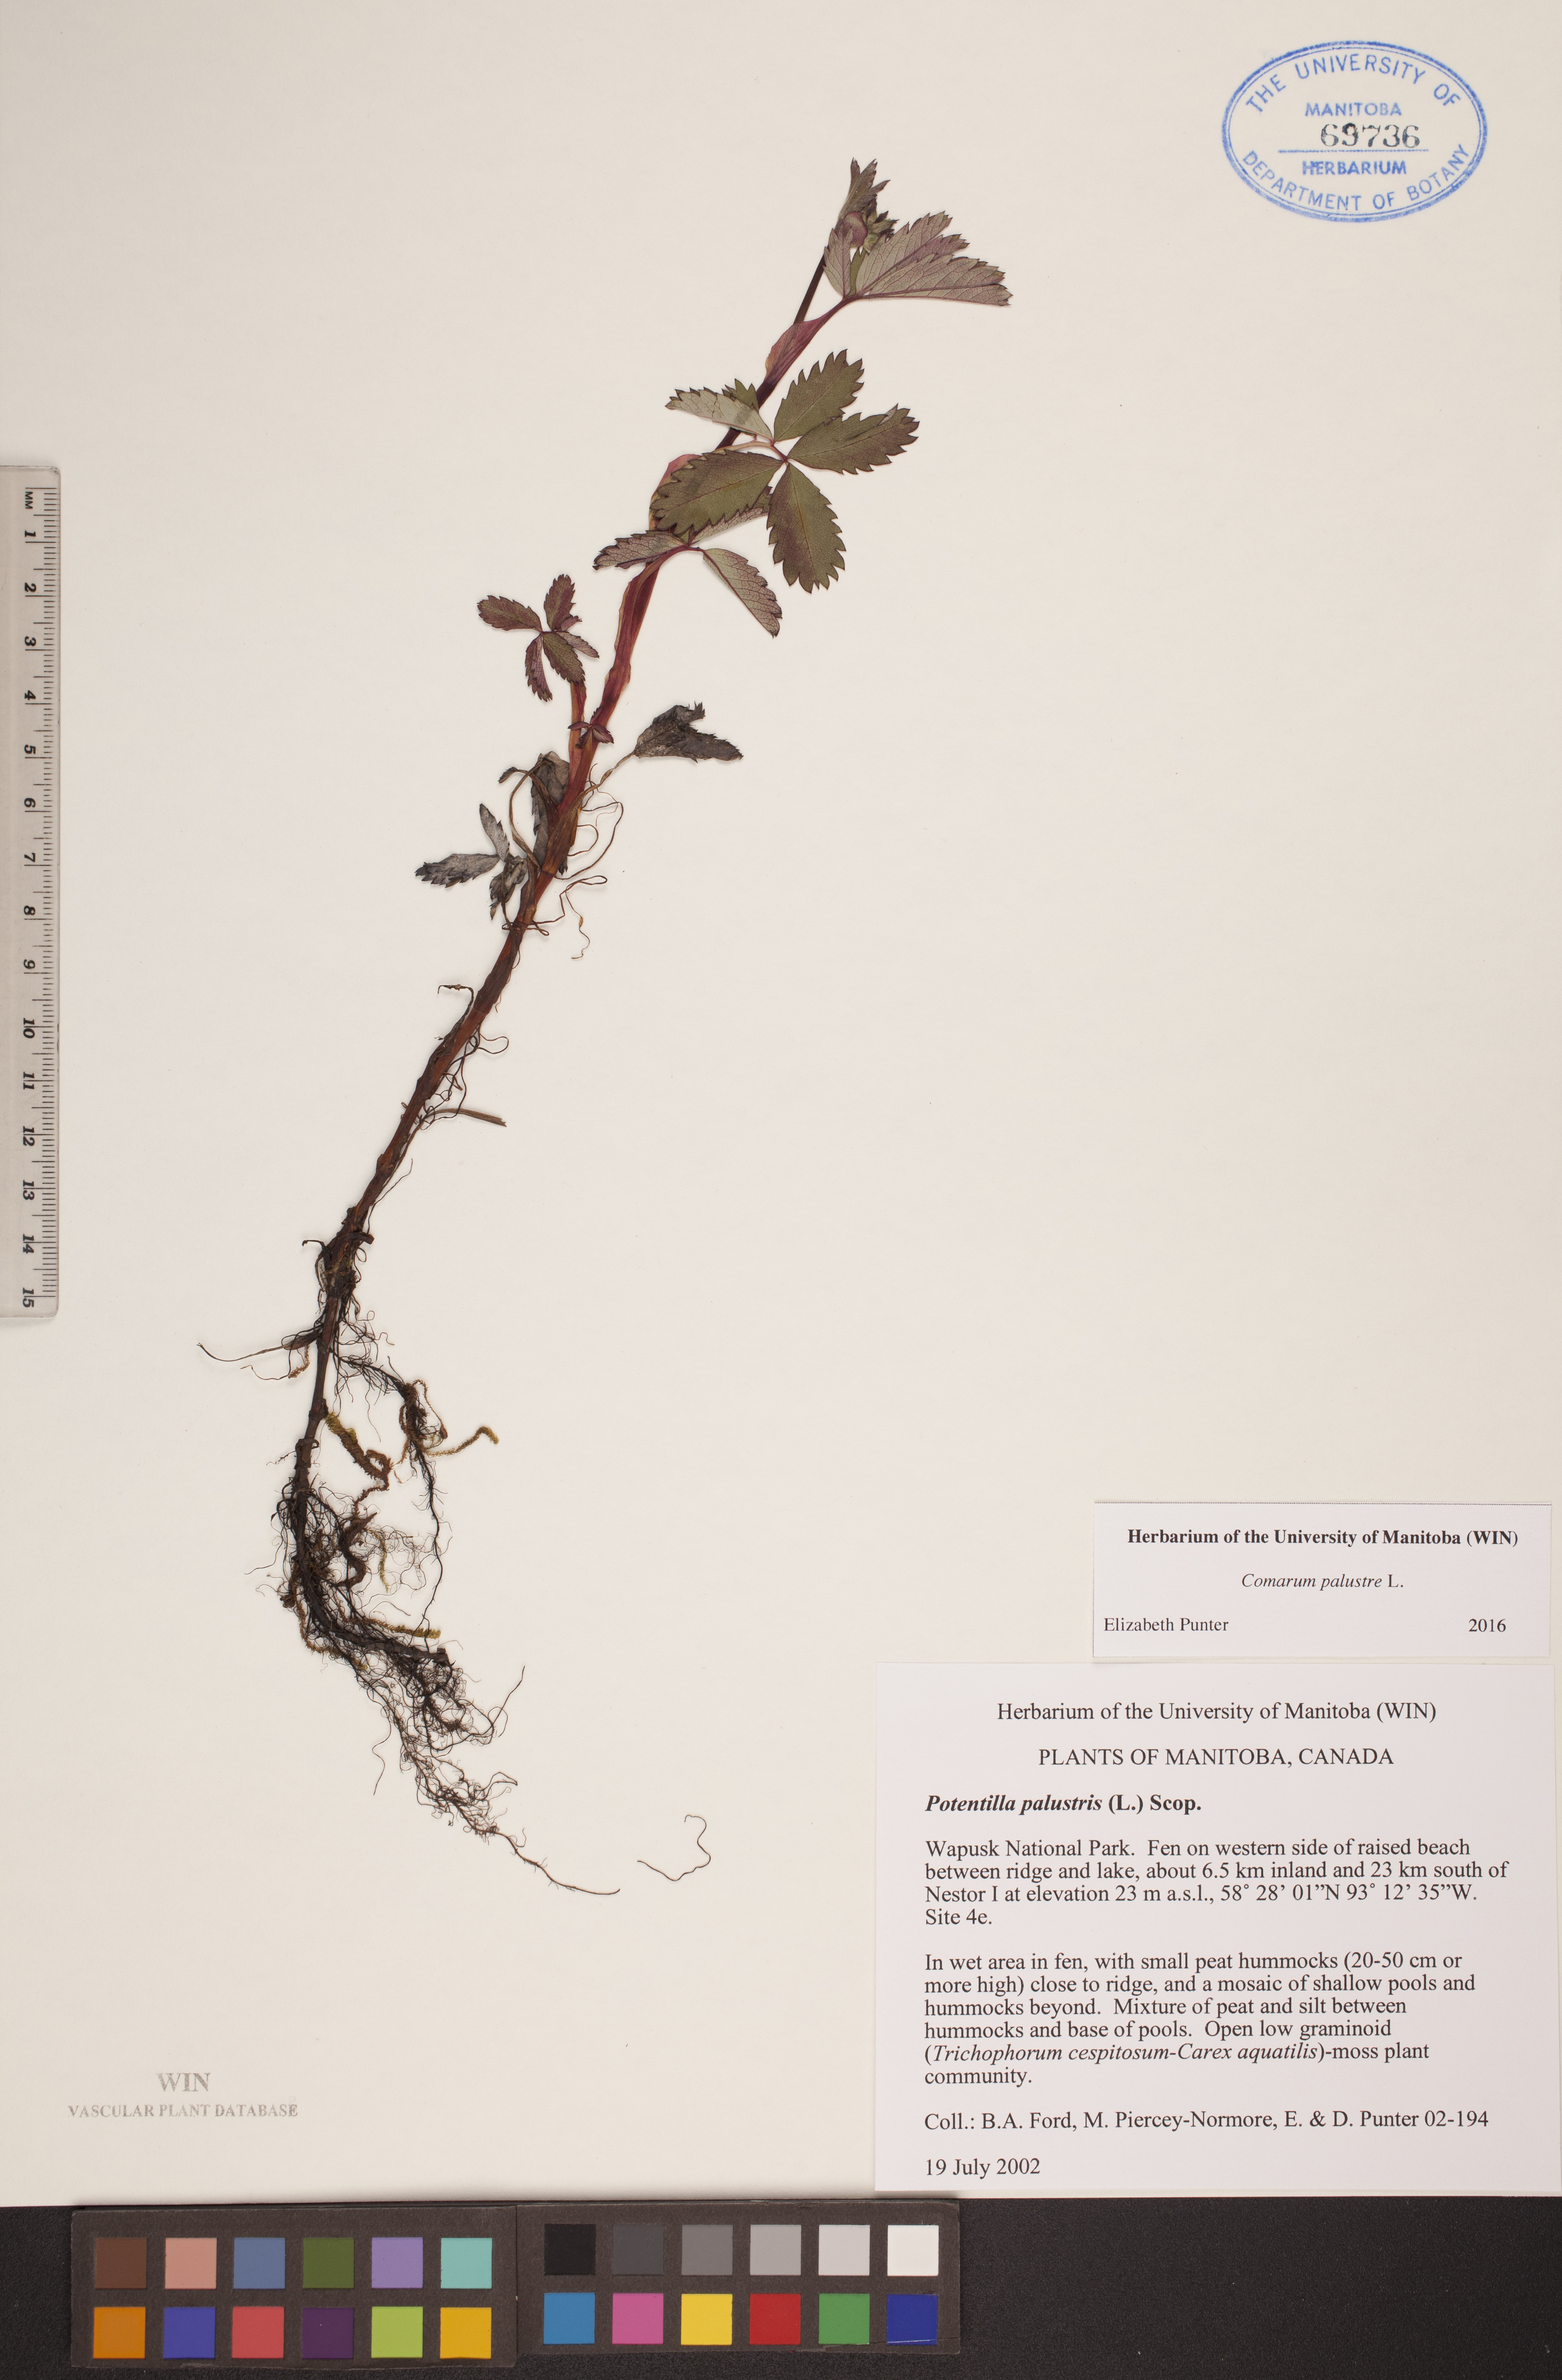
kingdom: Plantae
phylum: Tracheophyta
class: Magnoliopsida
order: Rosales
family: Rosaceae
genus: Comarum
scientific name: Comarum palustre
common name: Marsh cinquefoil
